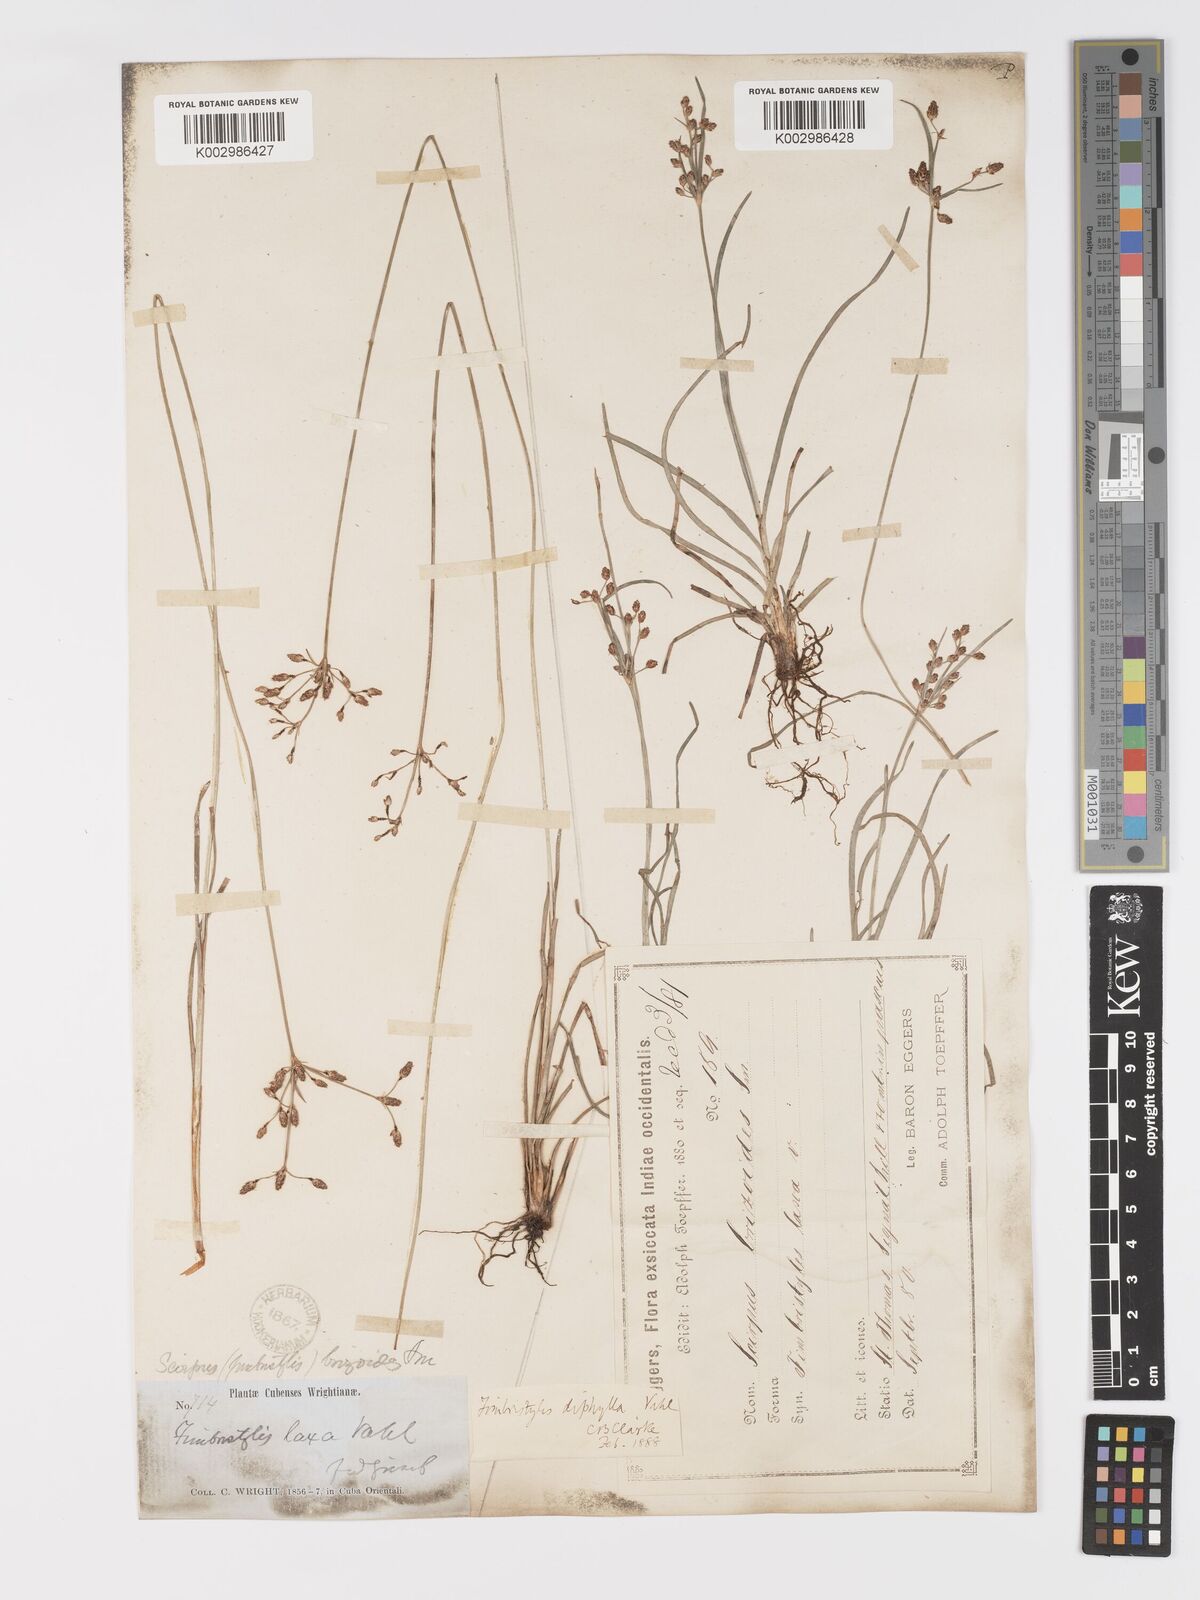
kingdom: Plantae
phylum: Tracheophyta
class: Liliopsida
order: Poales
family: Cyperaceae
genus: Fimbristylis
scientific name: Fimbristylis dichotoma
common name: Forked fimbry
